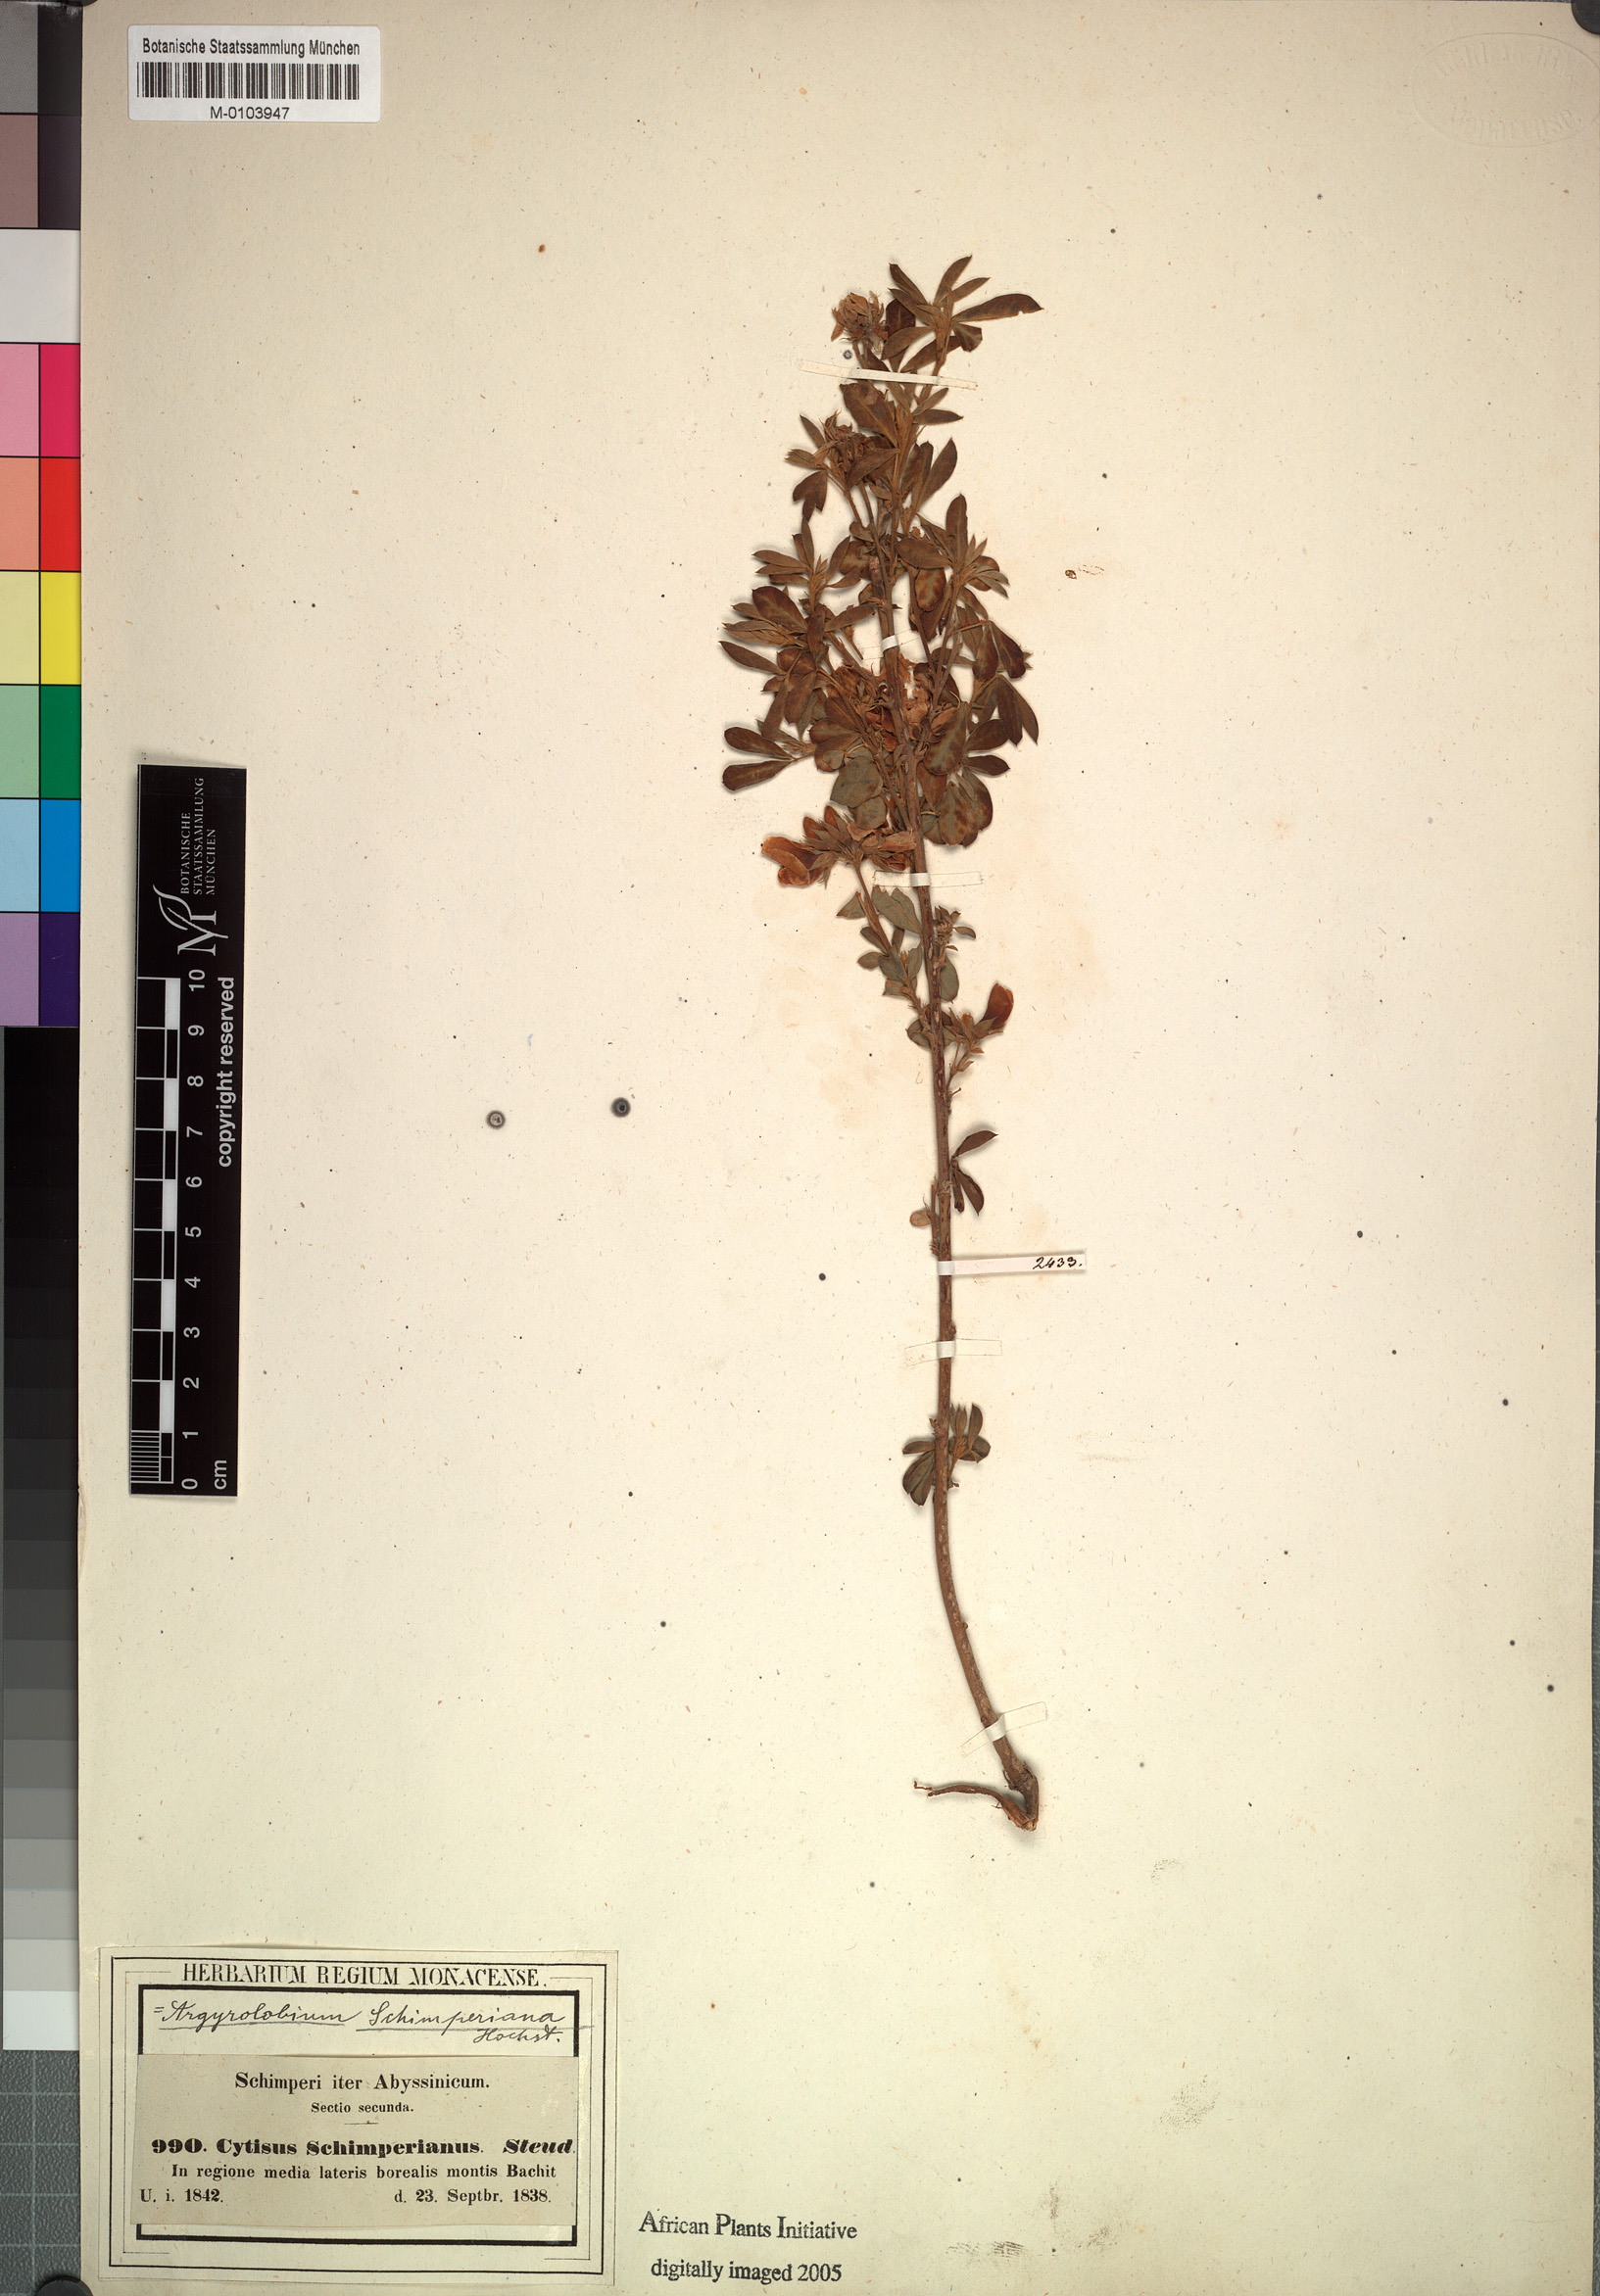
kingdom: Plantae
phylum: Tracheophyta
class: Magnoliopsida
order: Fabales
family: Fabaceae
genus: Argyrolobium
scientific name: Argyrolobium schimperianum
